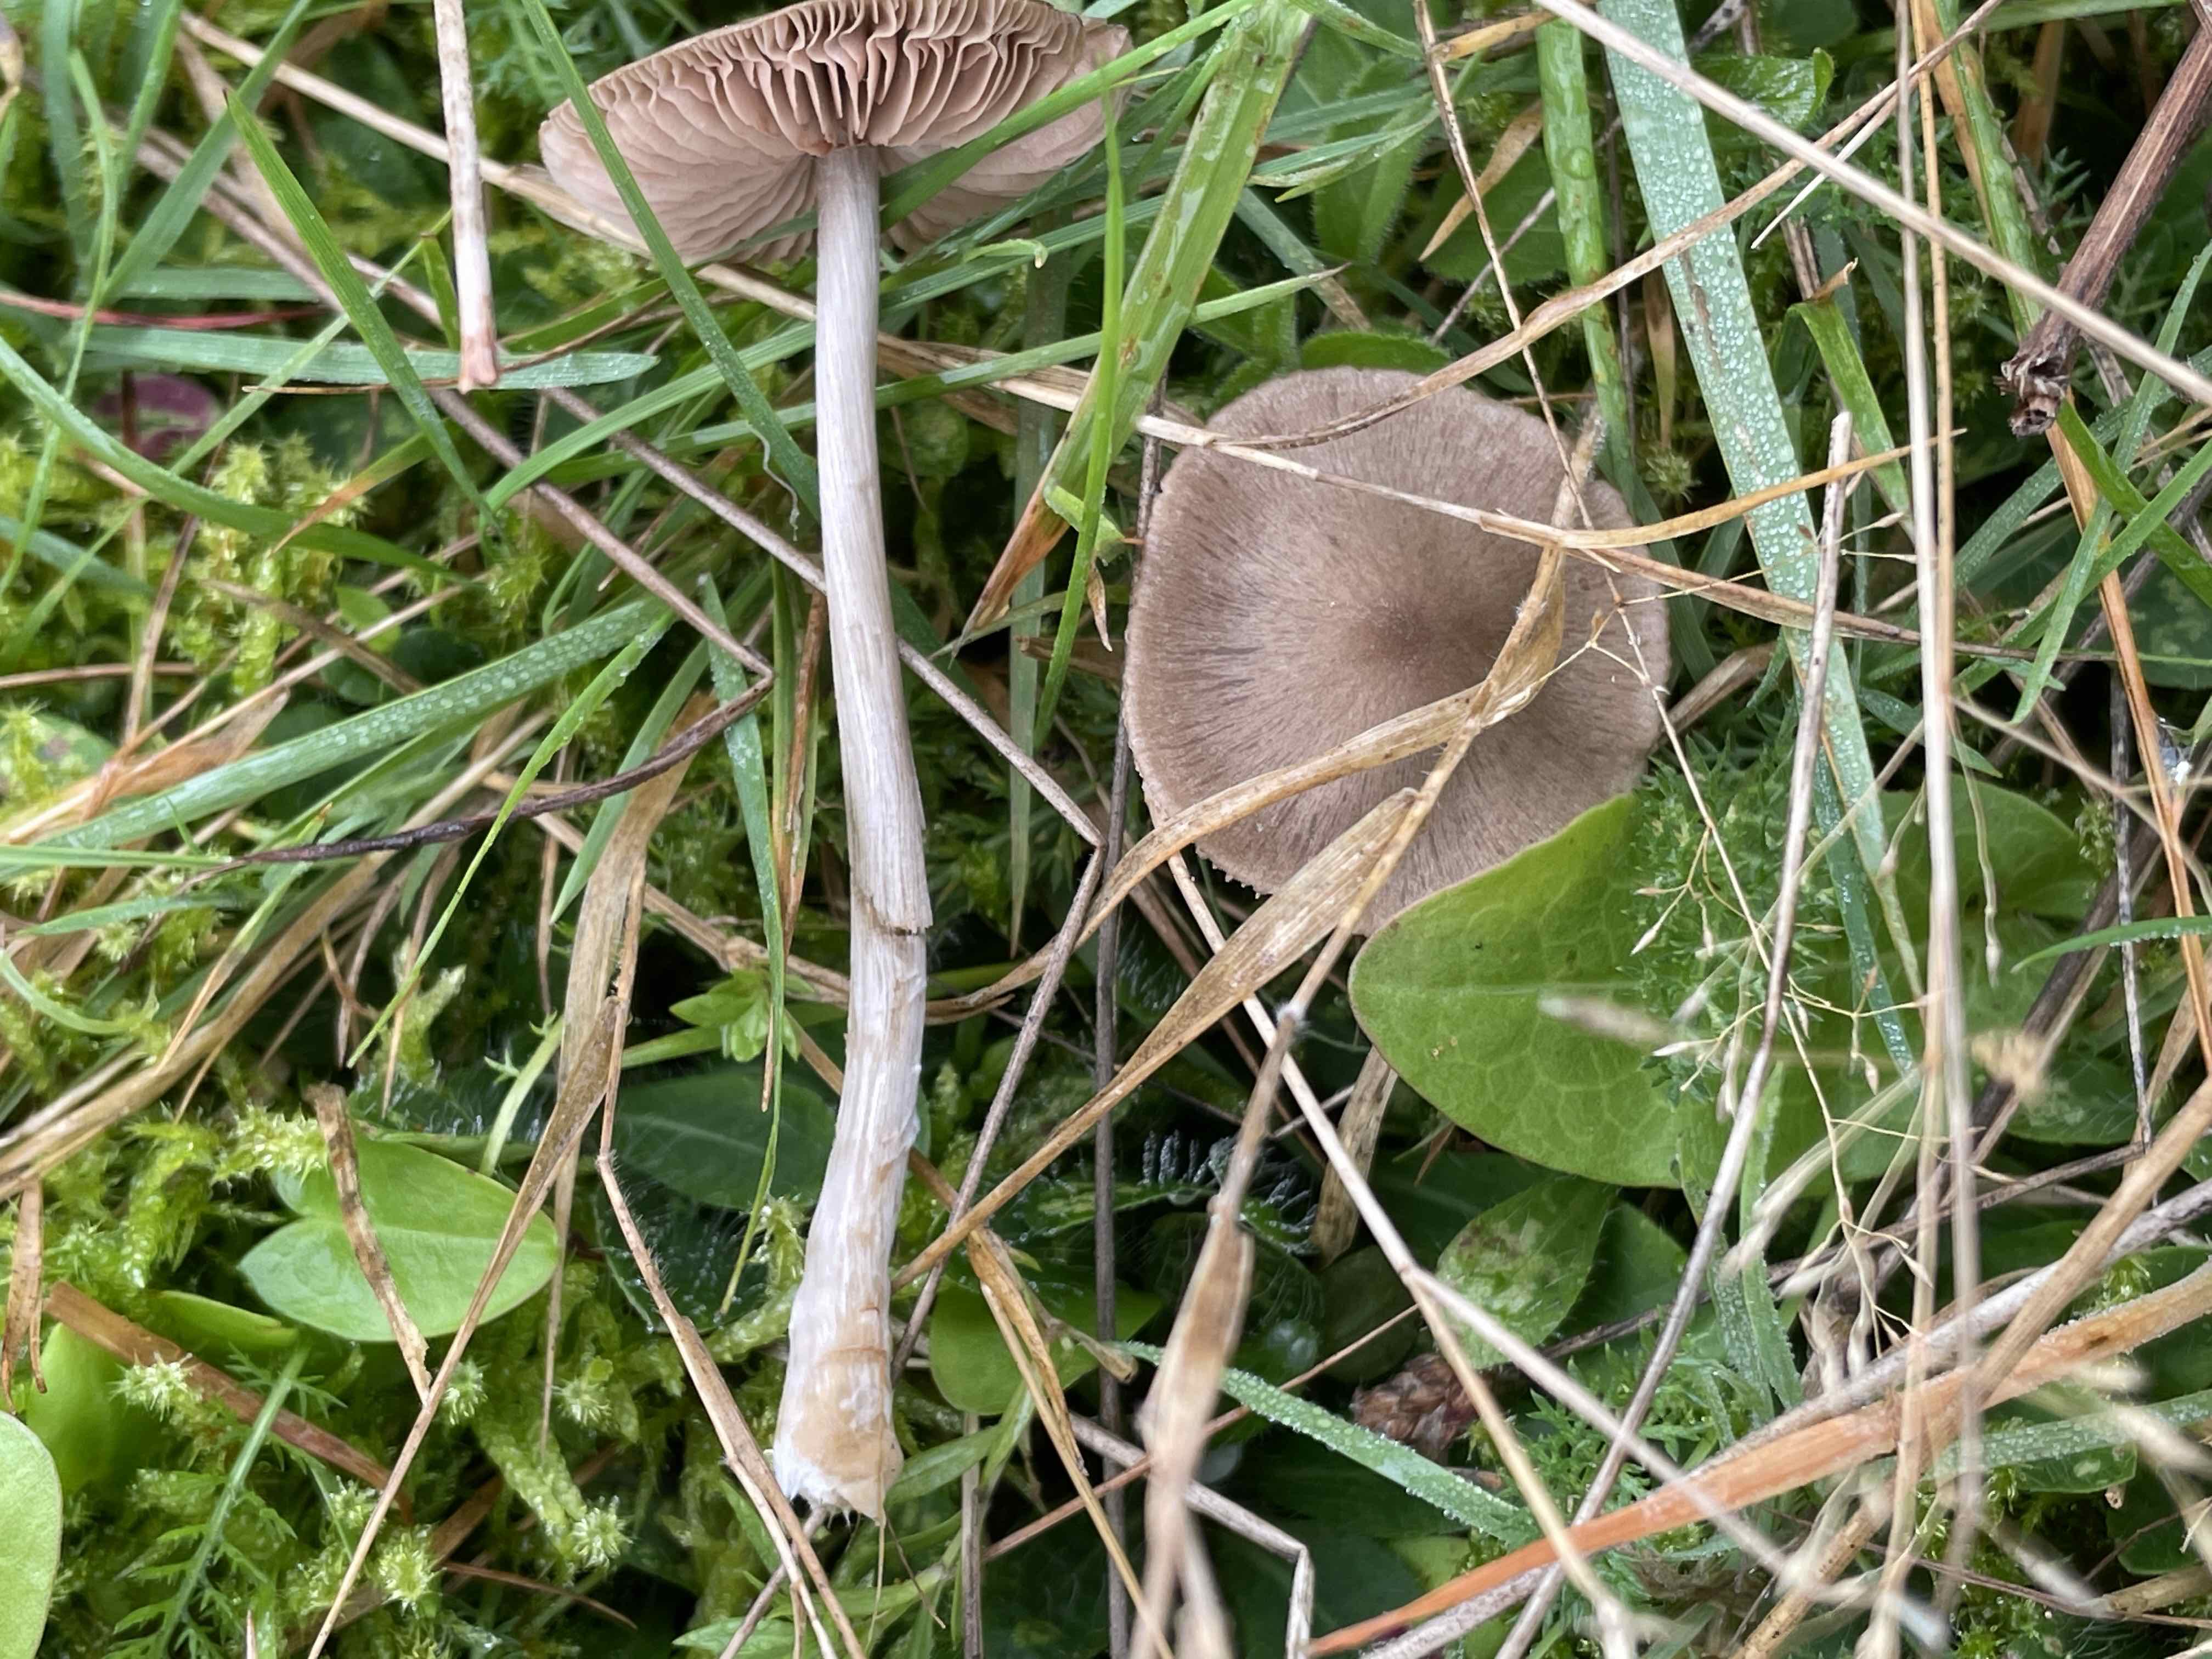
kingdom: Fungi
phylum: Basidiomycota
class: Agaricomycetes
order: Agaricales
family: Entolomataceae
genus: Entoloma
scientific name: Entoloma conferendum
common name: stjernesporet rødblad
